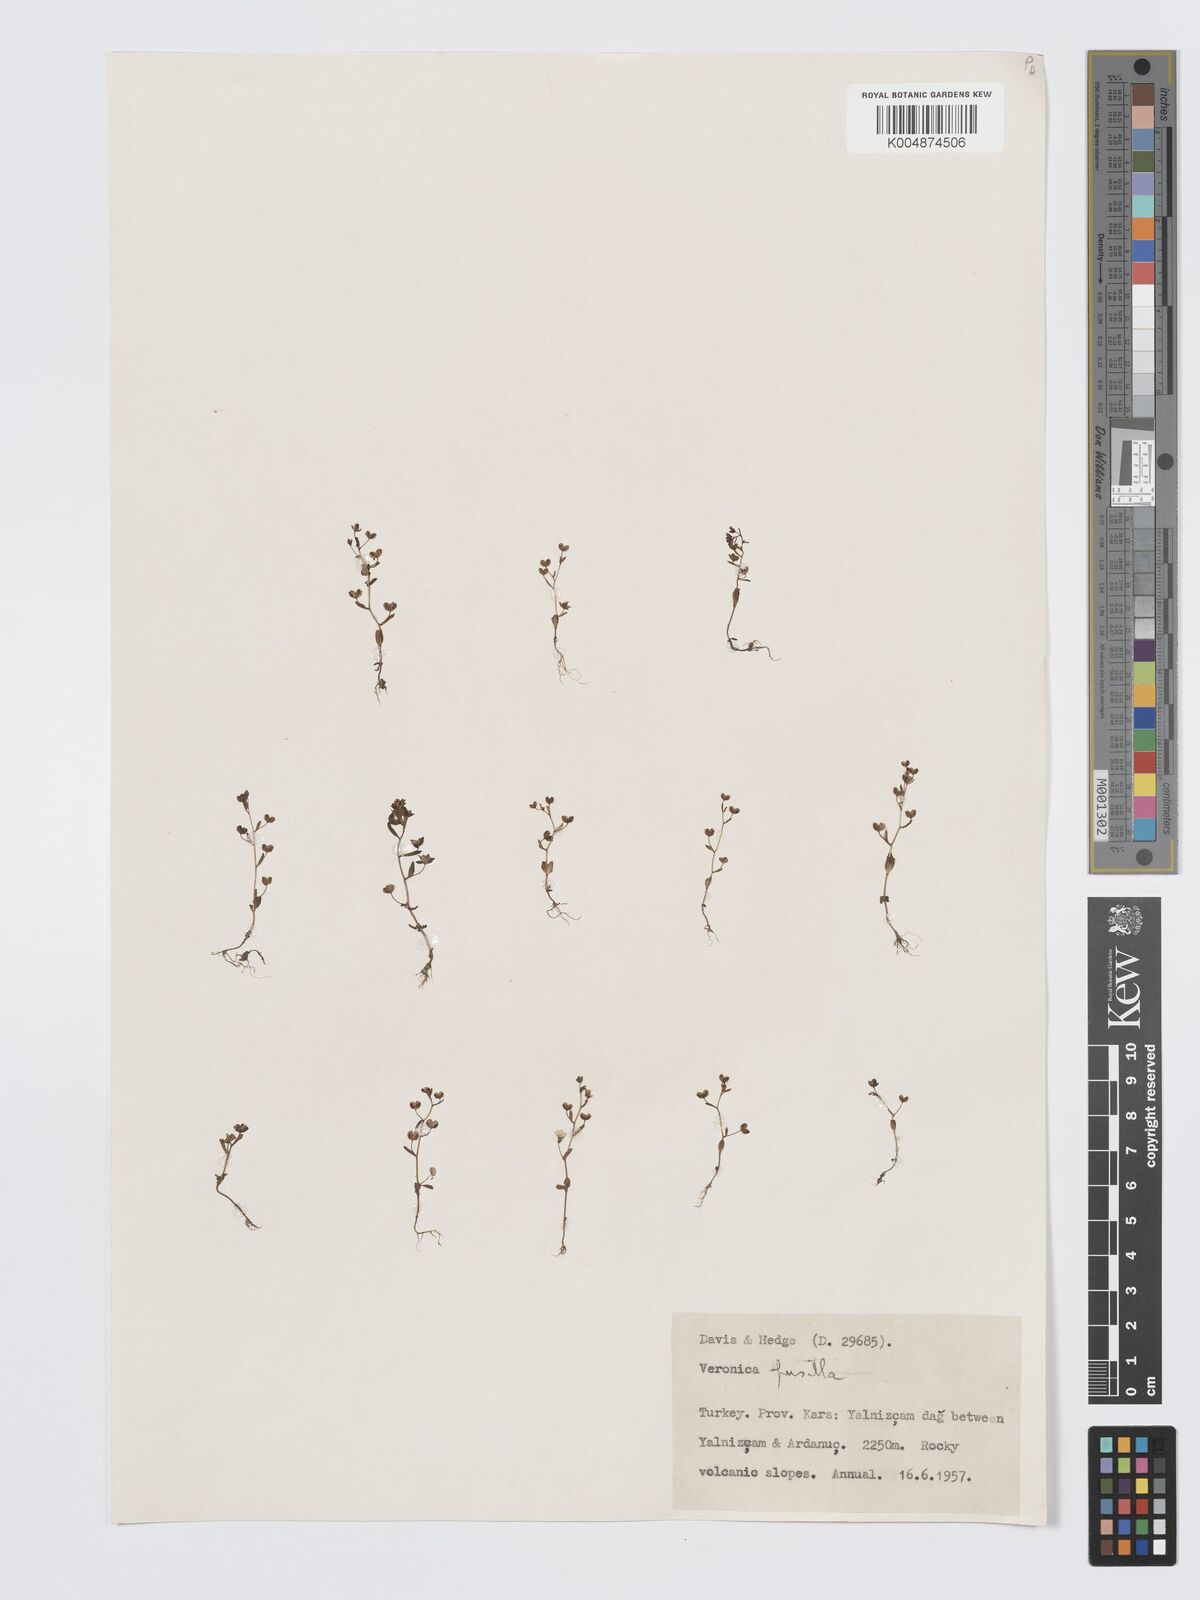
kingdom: Plantae
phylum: Tracheophyta
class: Magnoliopsida
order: Lamiales
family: Plantaginaceae
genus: Veronica
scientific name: Veronica pusilla
